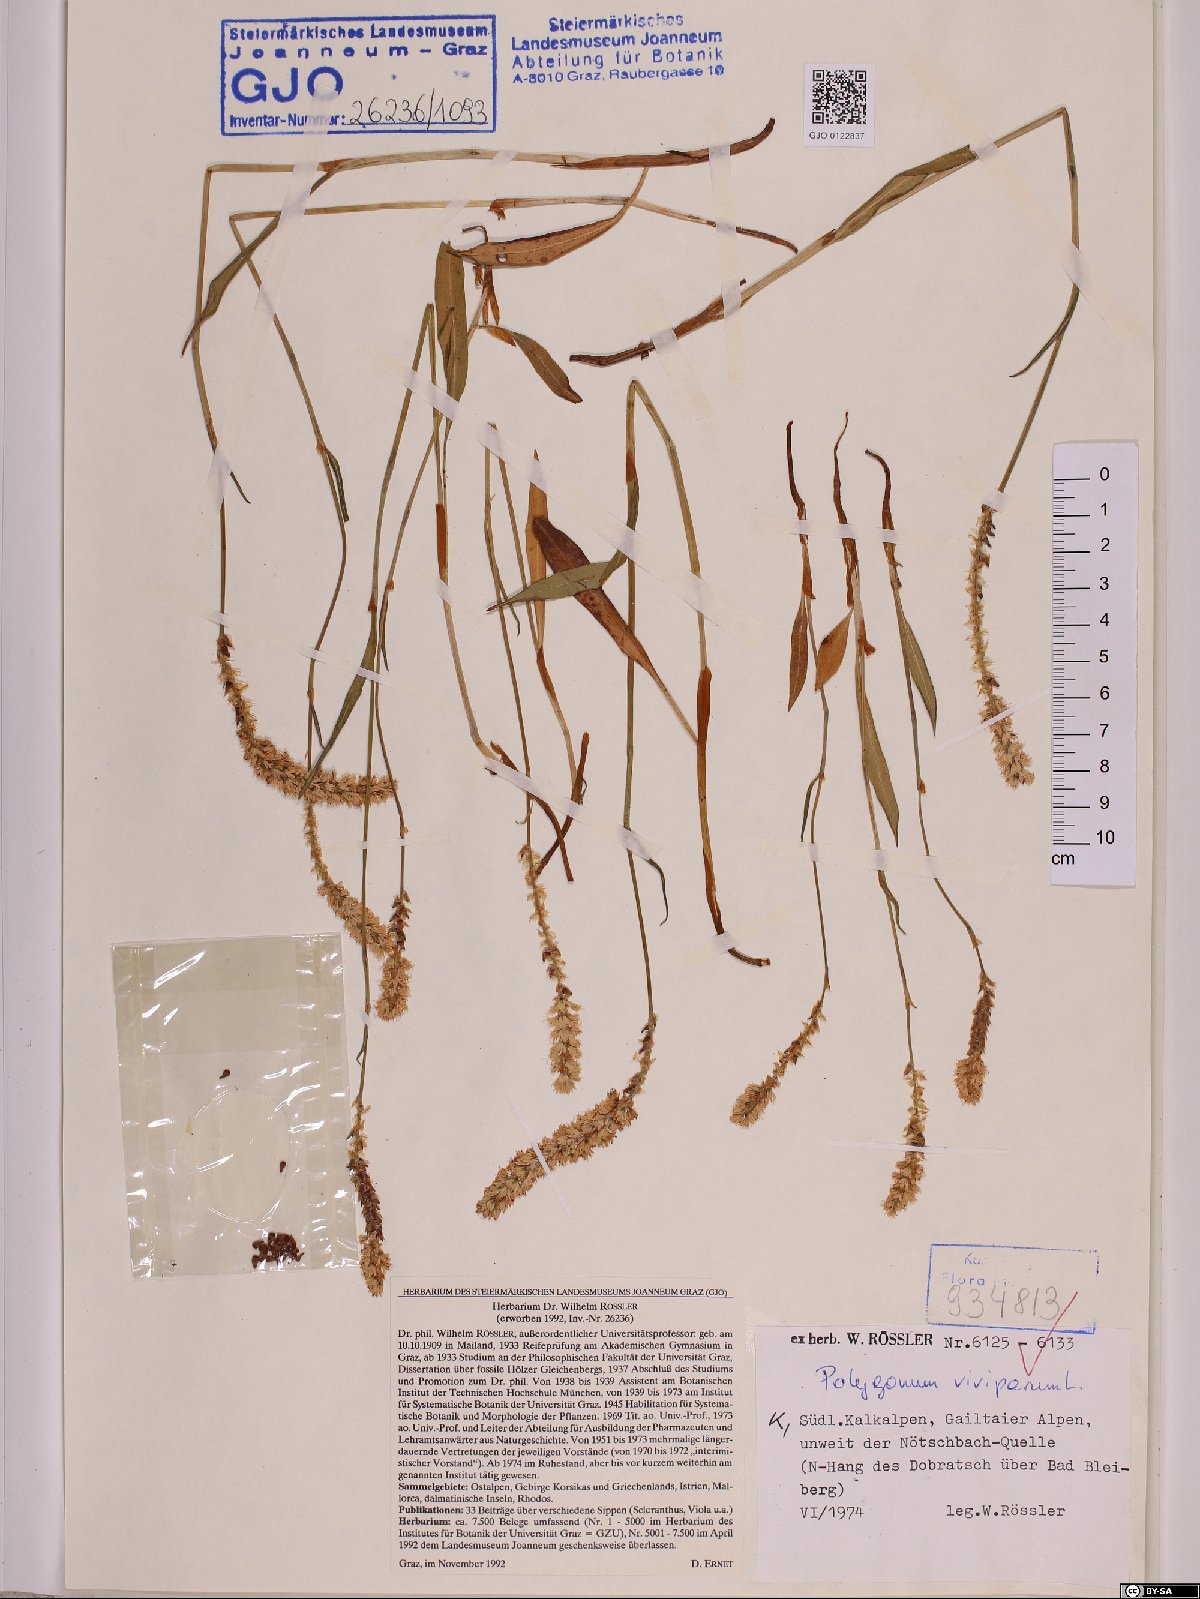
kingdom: Plantae
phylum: Tracheophyta
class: Magnoliopsida
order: Caryophyllales
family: Polygonaceae
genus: Bistorta
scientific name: Bistorta vivipara
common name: Alpine bistort
